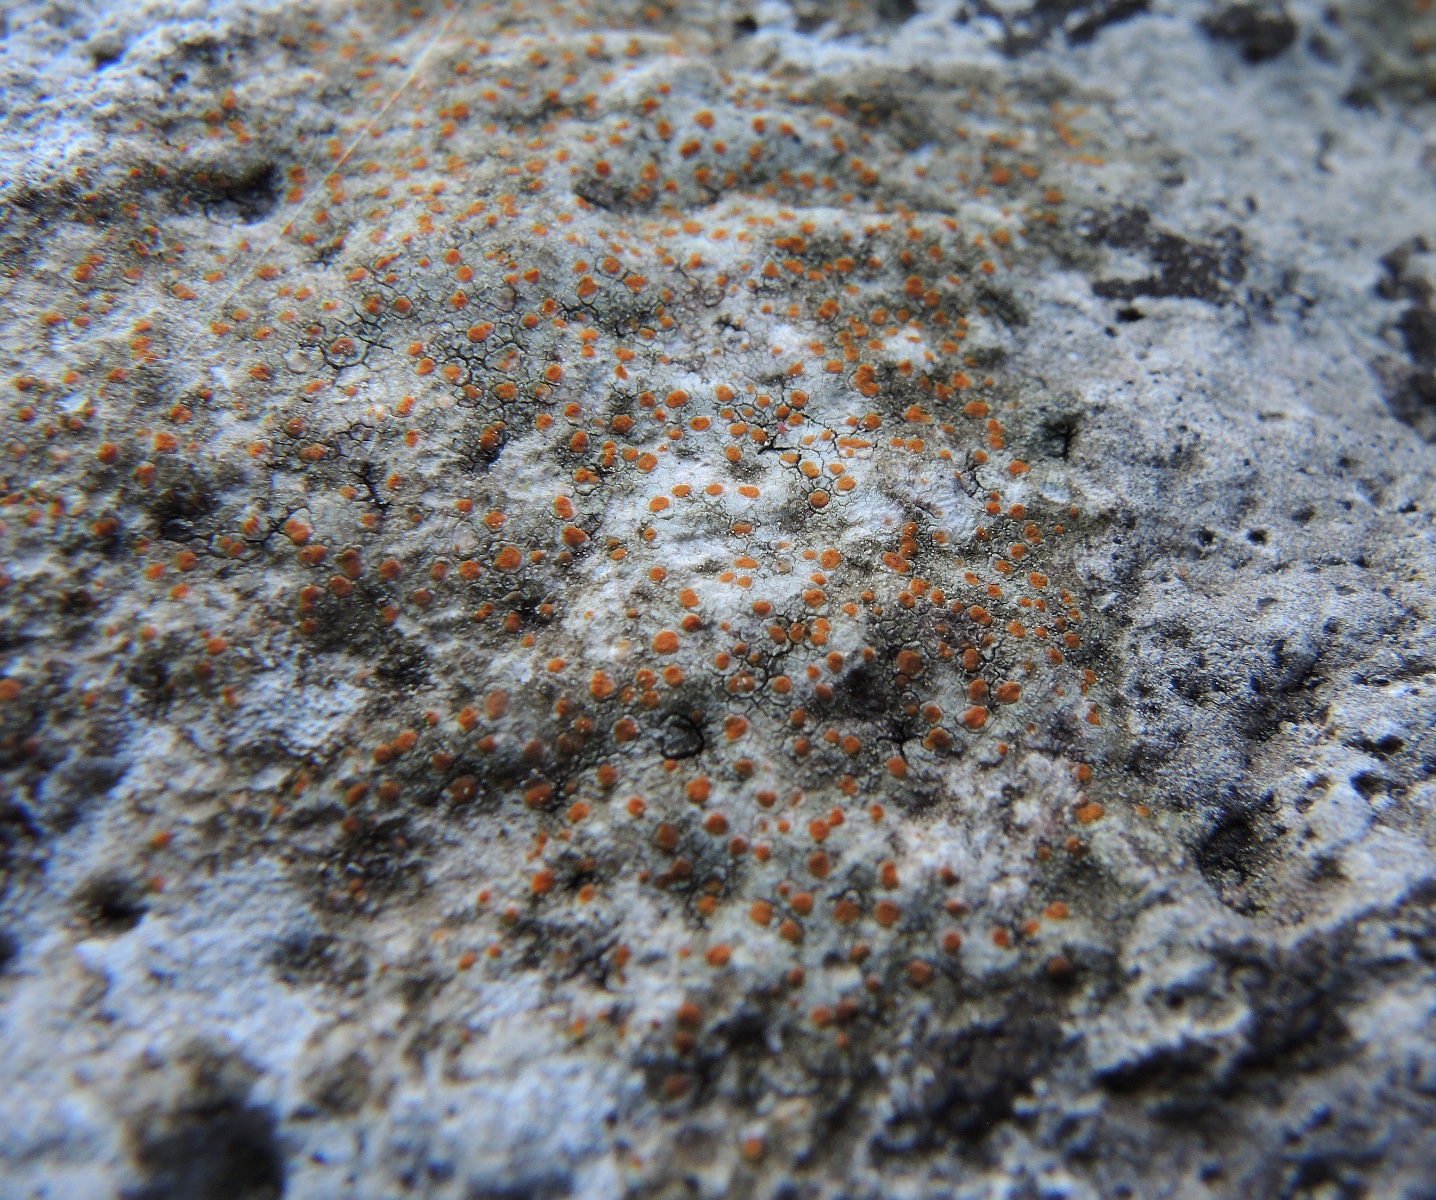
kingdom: Fungi
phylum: Ascomycota
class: Lecanoromycetes
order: Lecanorales
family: Psoraceae
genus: Protoblastenia
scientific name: Protoblastenia rupestris
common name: kalk-gulskivelav
